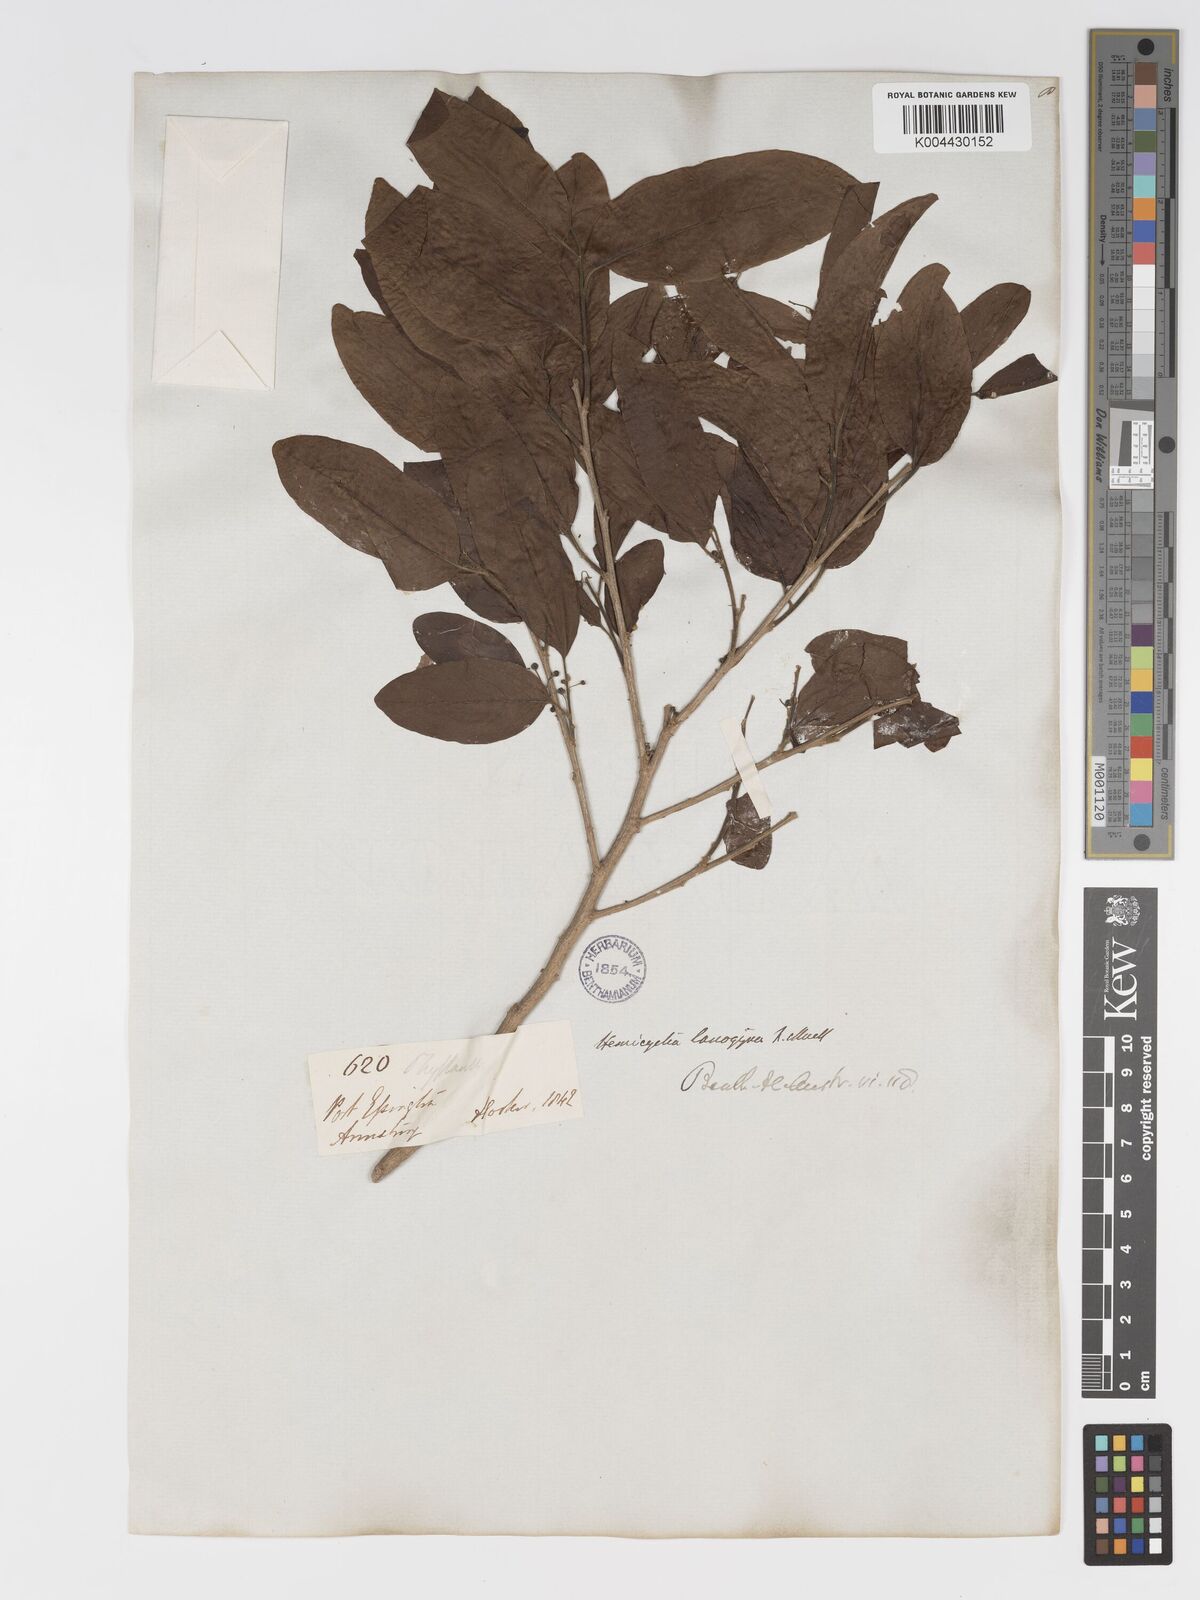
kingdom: Plantae
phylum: Tracheophyta
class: Magnoliopsida
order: Malpighiales
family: Putranjivaceae
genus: Drypetes
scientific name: Drypetes deplanchei
